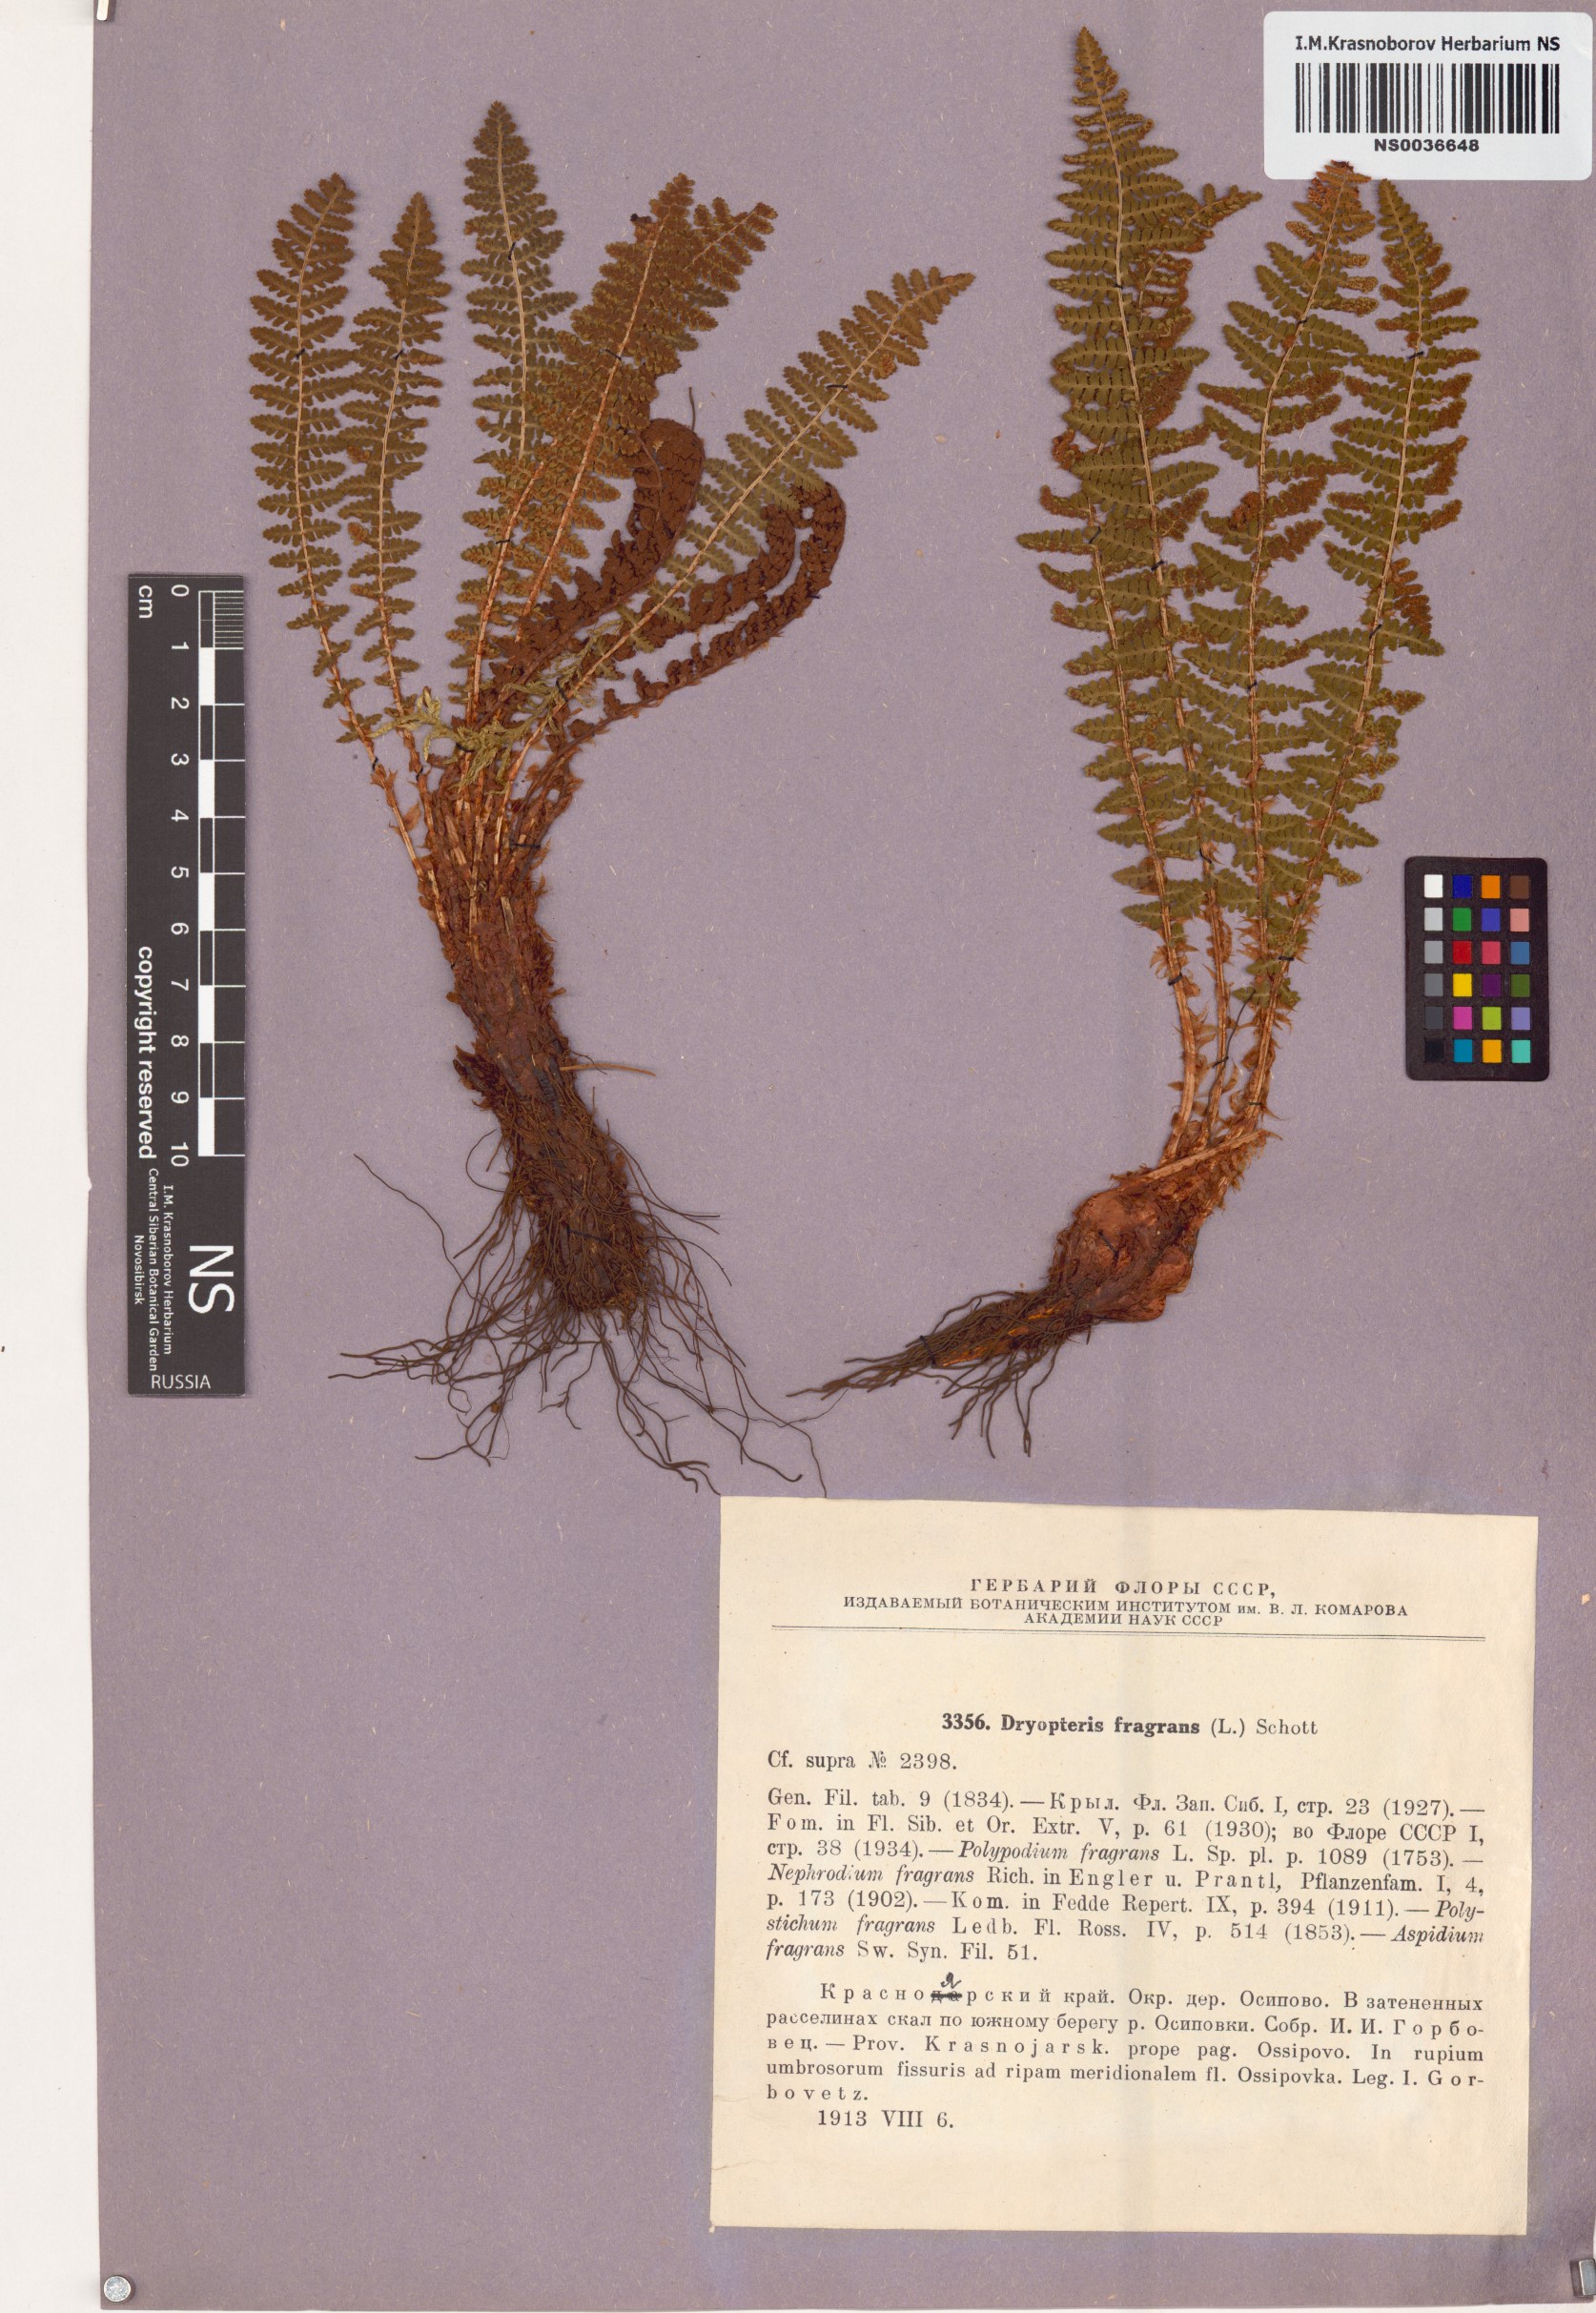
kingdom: Plantae
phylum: Tracheophyta
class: Polypodiopsida
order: Polypodiales
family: Dryopteridaceae
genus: Dryopteris
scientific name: Dryopteris fragrans
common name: Fragrant wood fern
